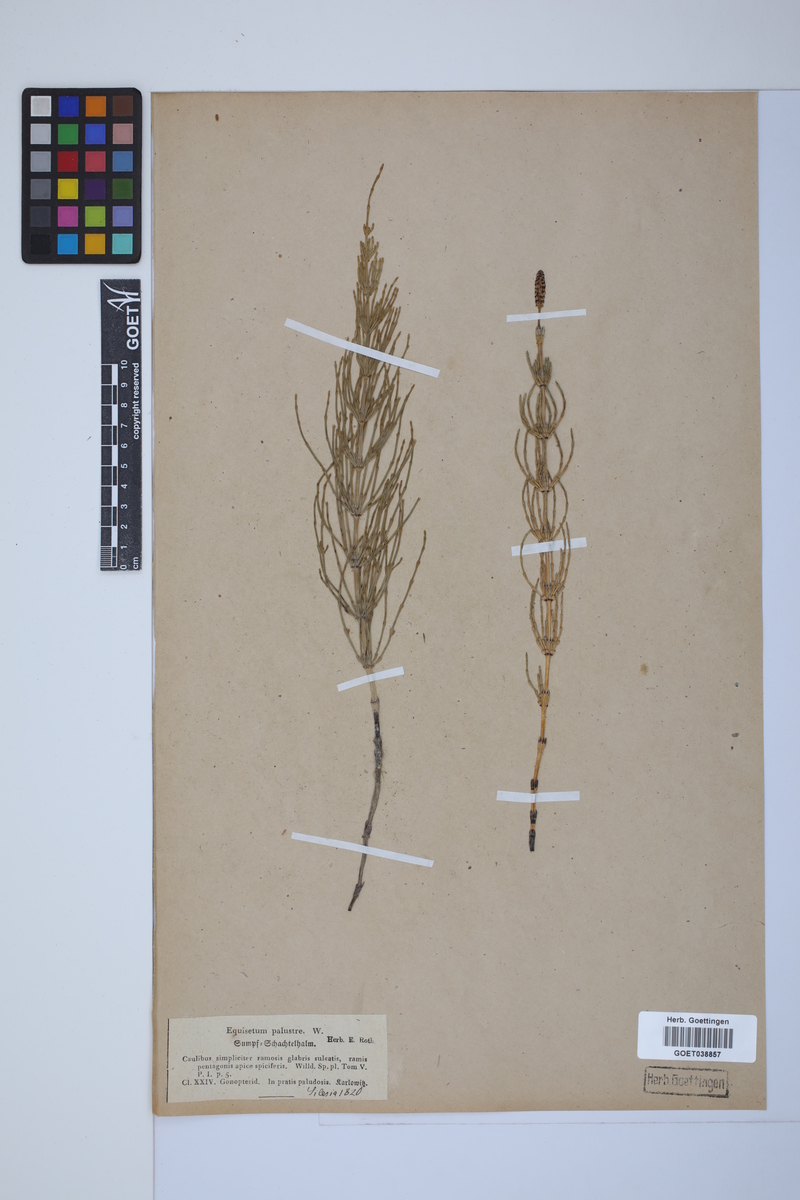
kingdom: Plantae
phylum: Tracheophyta
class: Polypodiopsida
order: Equisetales
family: Equisetaceae
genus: Equisetum
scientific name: Equisetum palustre
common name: Marsh horsetail
